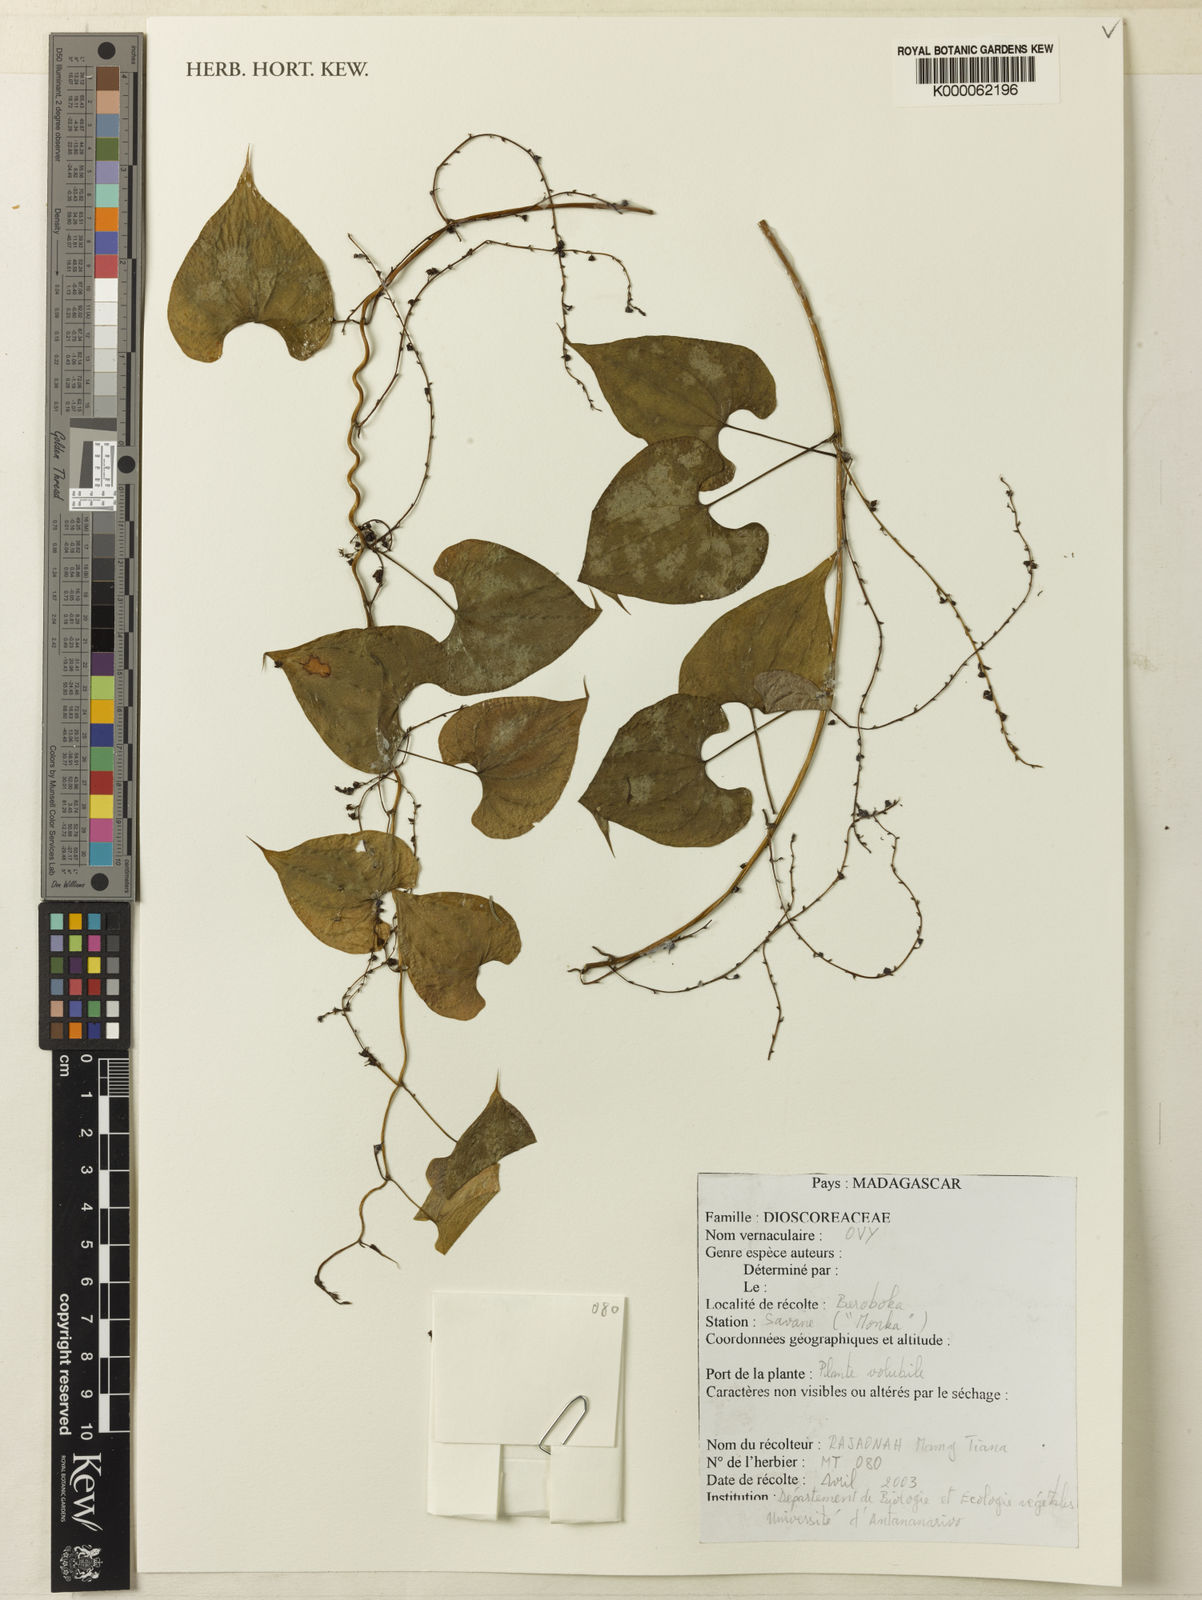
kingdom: Plantae
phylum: Tracheophyta
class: Liliopsida
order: Dioscoreales
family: Dioscoreaceae
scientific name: Dioscoreaceae
